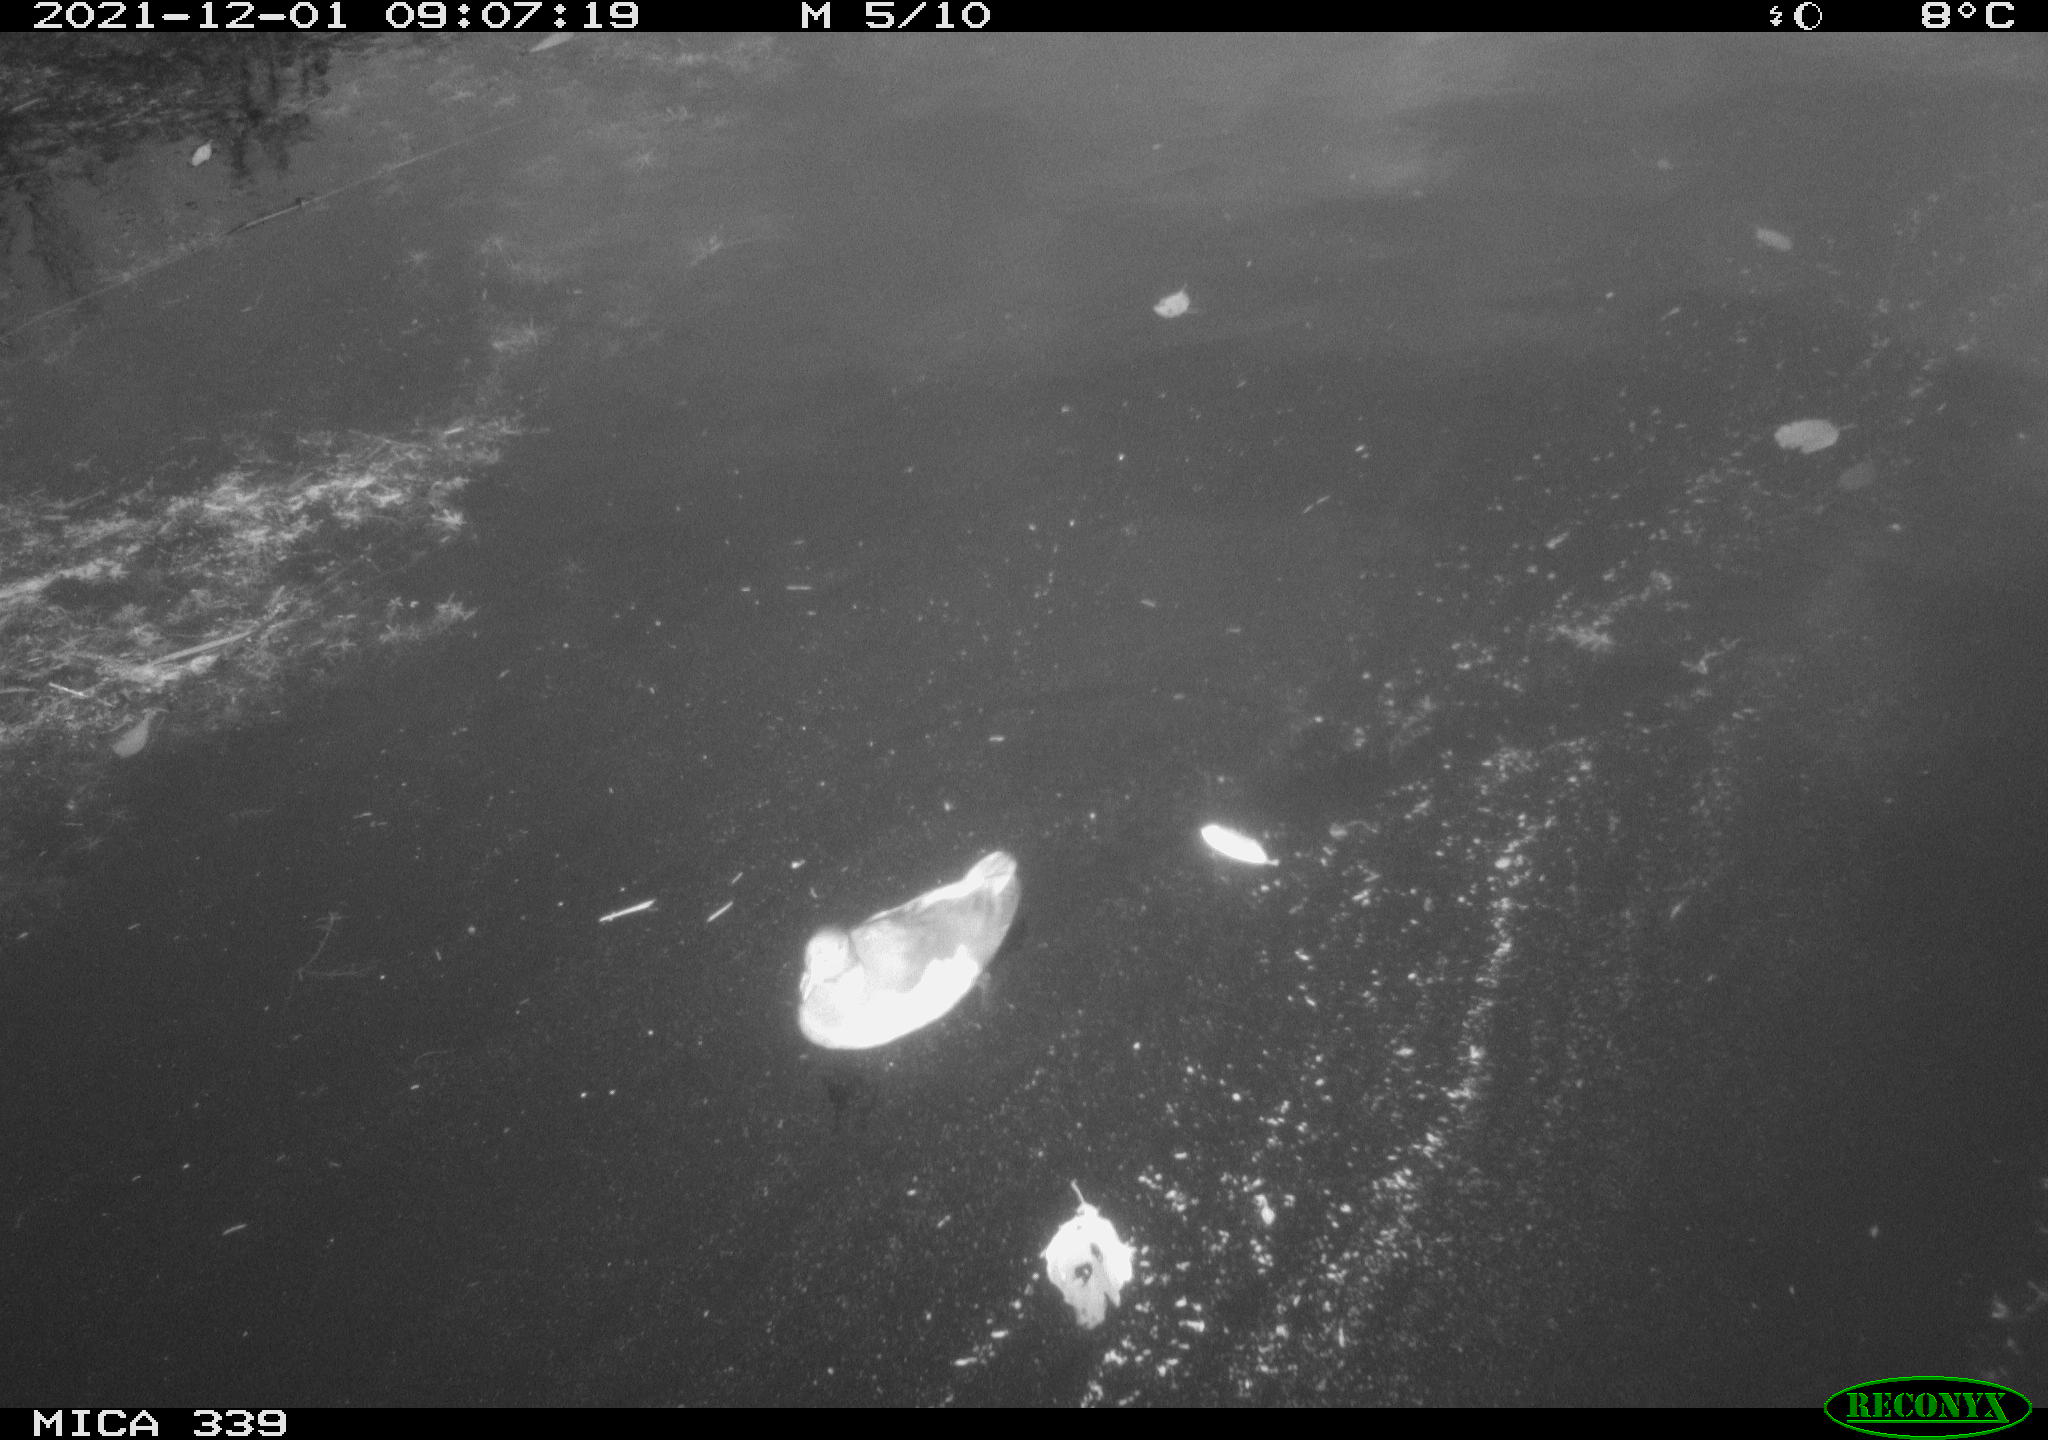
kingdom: Animalia
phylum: Chordata
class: Aves
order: Gruiformes
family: Rallidae
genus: Gallinula
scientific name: Gallinula chloropus
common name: Common moorhen
